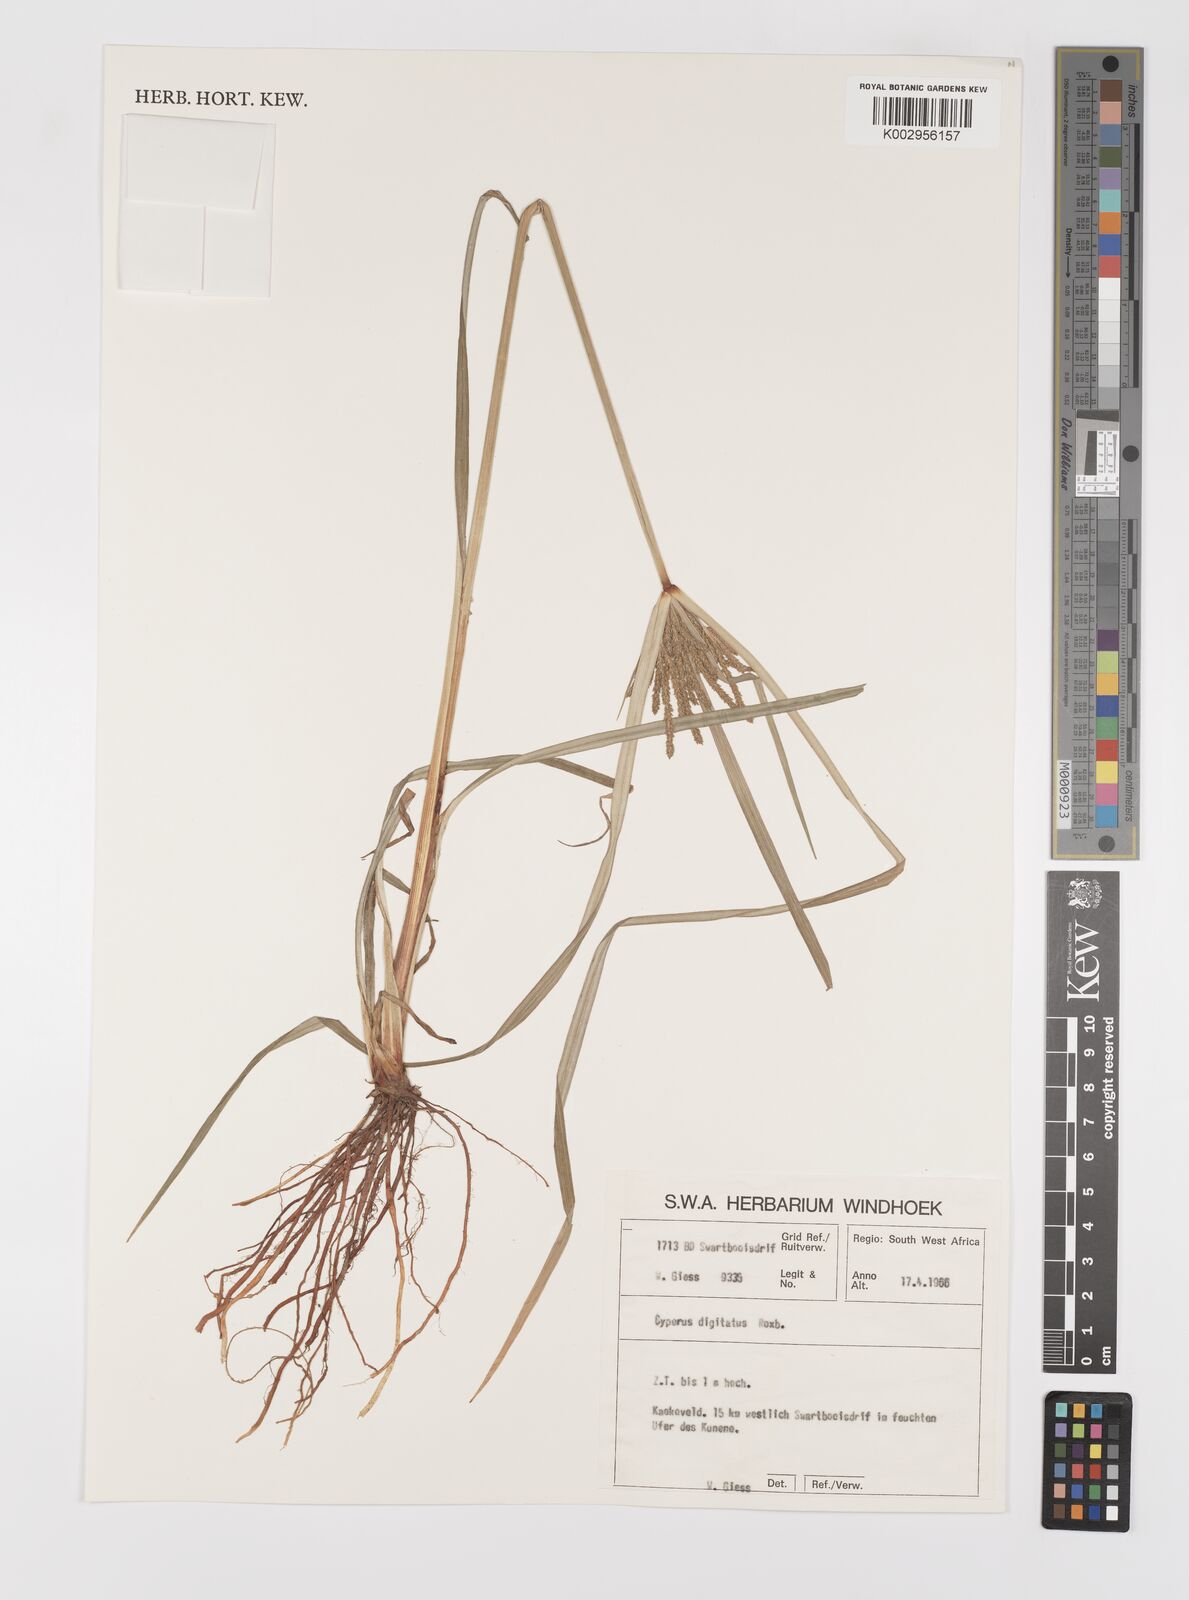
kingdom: Plantae
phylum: Tracheophyta
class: Liliopsida
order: Poales
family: Cyperaceae
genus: Cyperus
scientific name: Cyperus digitatus
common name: Finger flatsedge
